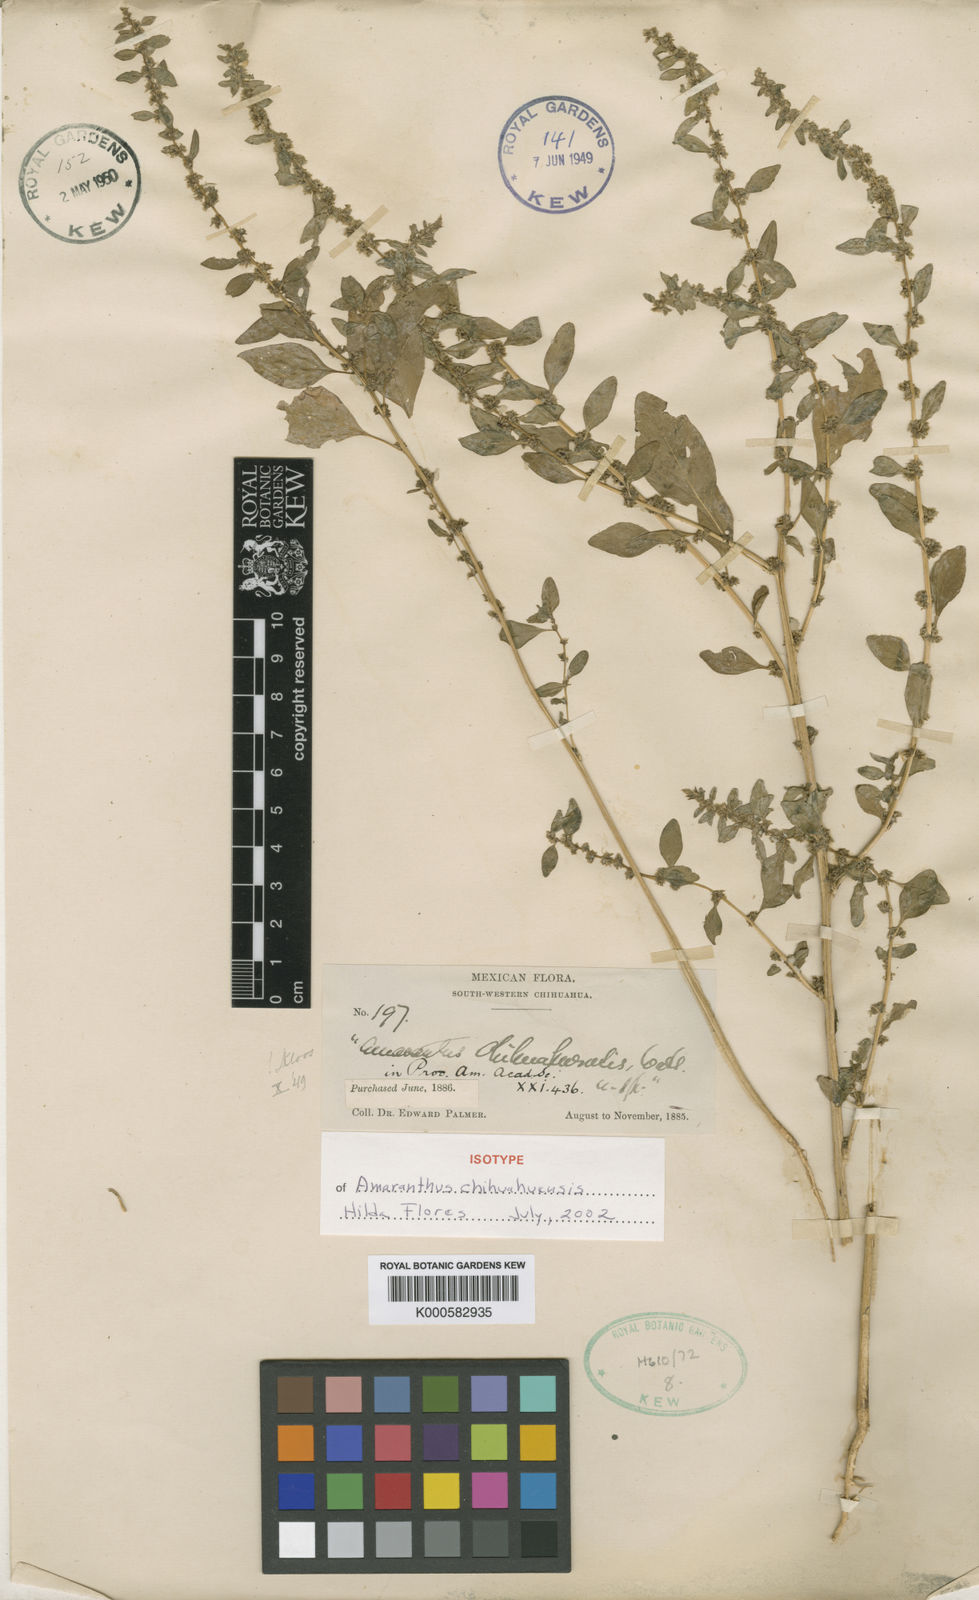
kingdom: Plantae
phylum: Tracheophyta
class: Magnoliopsida
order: Caryophyllales
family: Amaranthaceae
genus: Amaranthus
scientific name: Amaranthus torreyi
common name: Bigelow's amaranth
